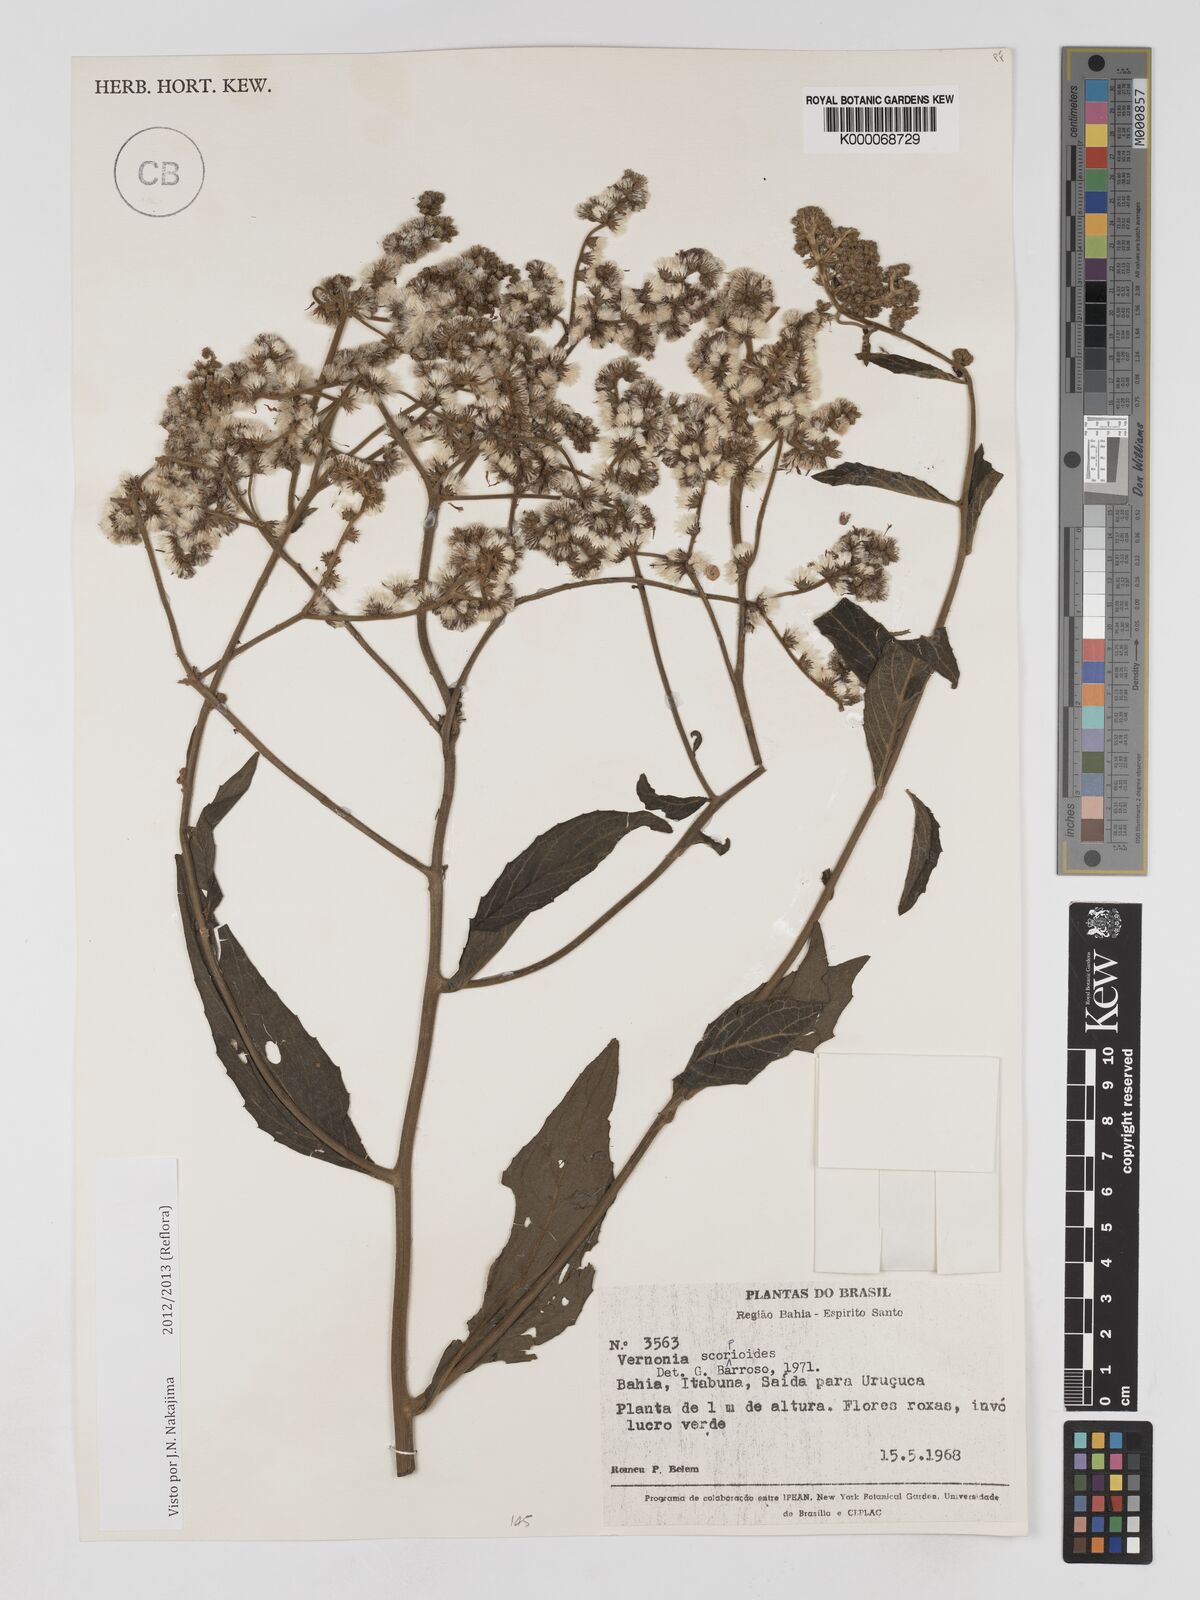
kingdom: Plantae
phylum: Tracheophyta
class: Magnoliopsida
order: Asterales
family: Asteraceae
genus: Cyrtocymura
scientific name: Cyrtocymura scorpioides
